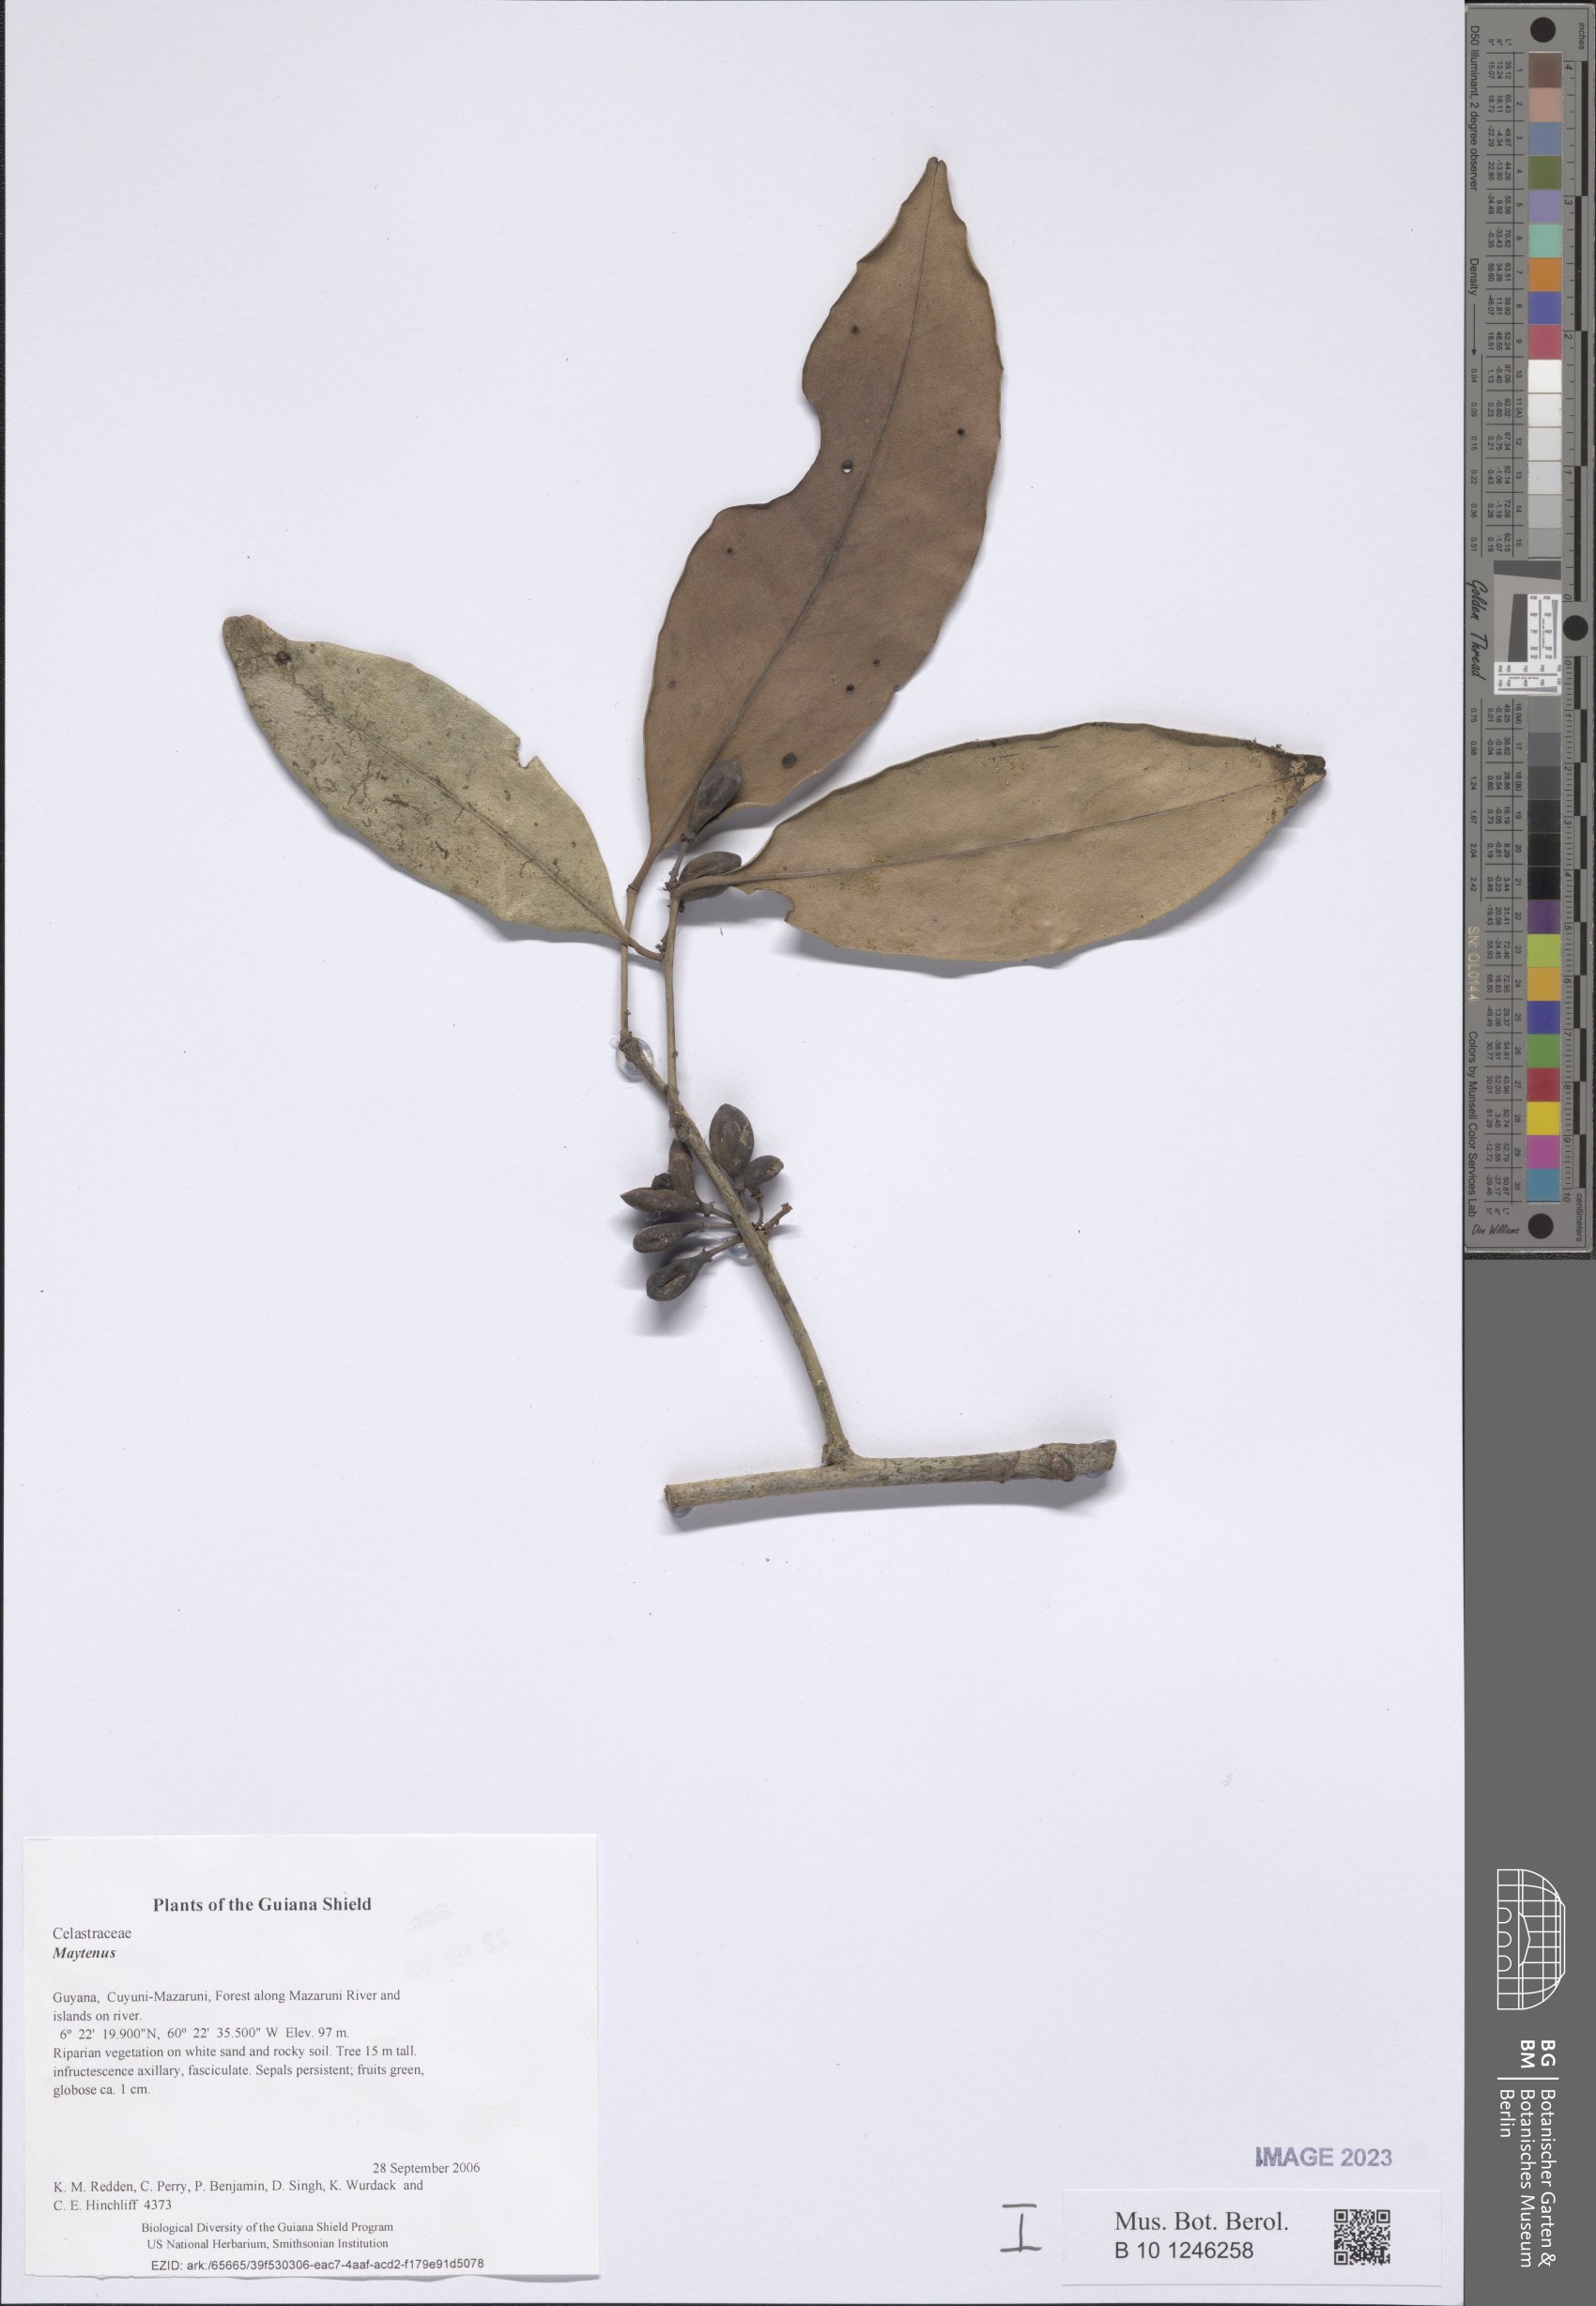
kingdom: Plantae
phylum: Tracheophyta
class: Magnoliopsida
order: Celastrales
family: Celastraceae
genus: Maytenus
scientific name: Maytenus
